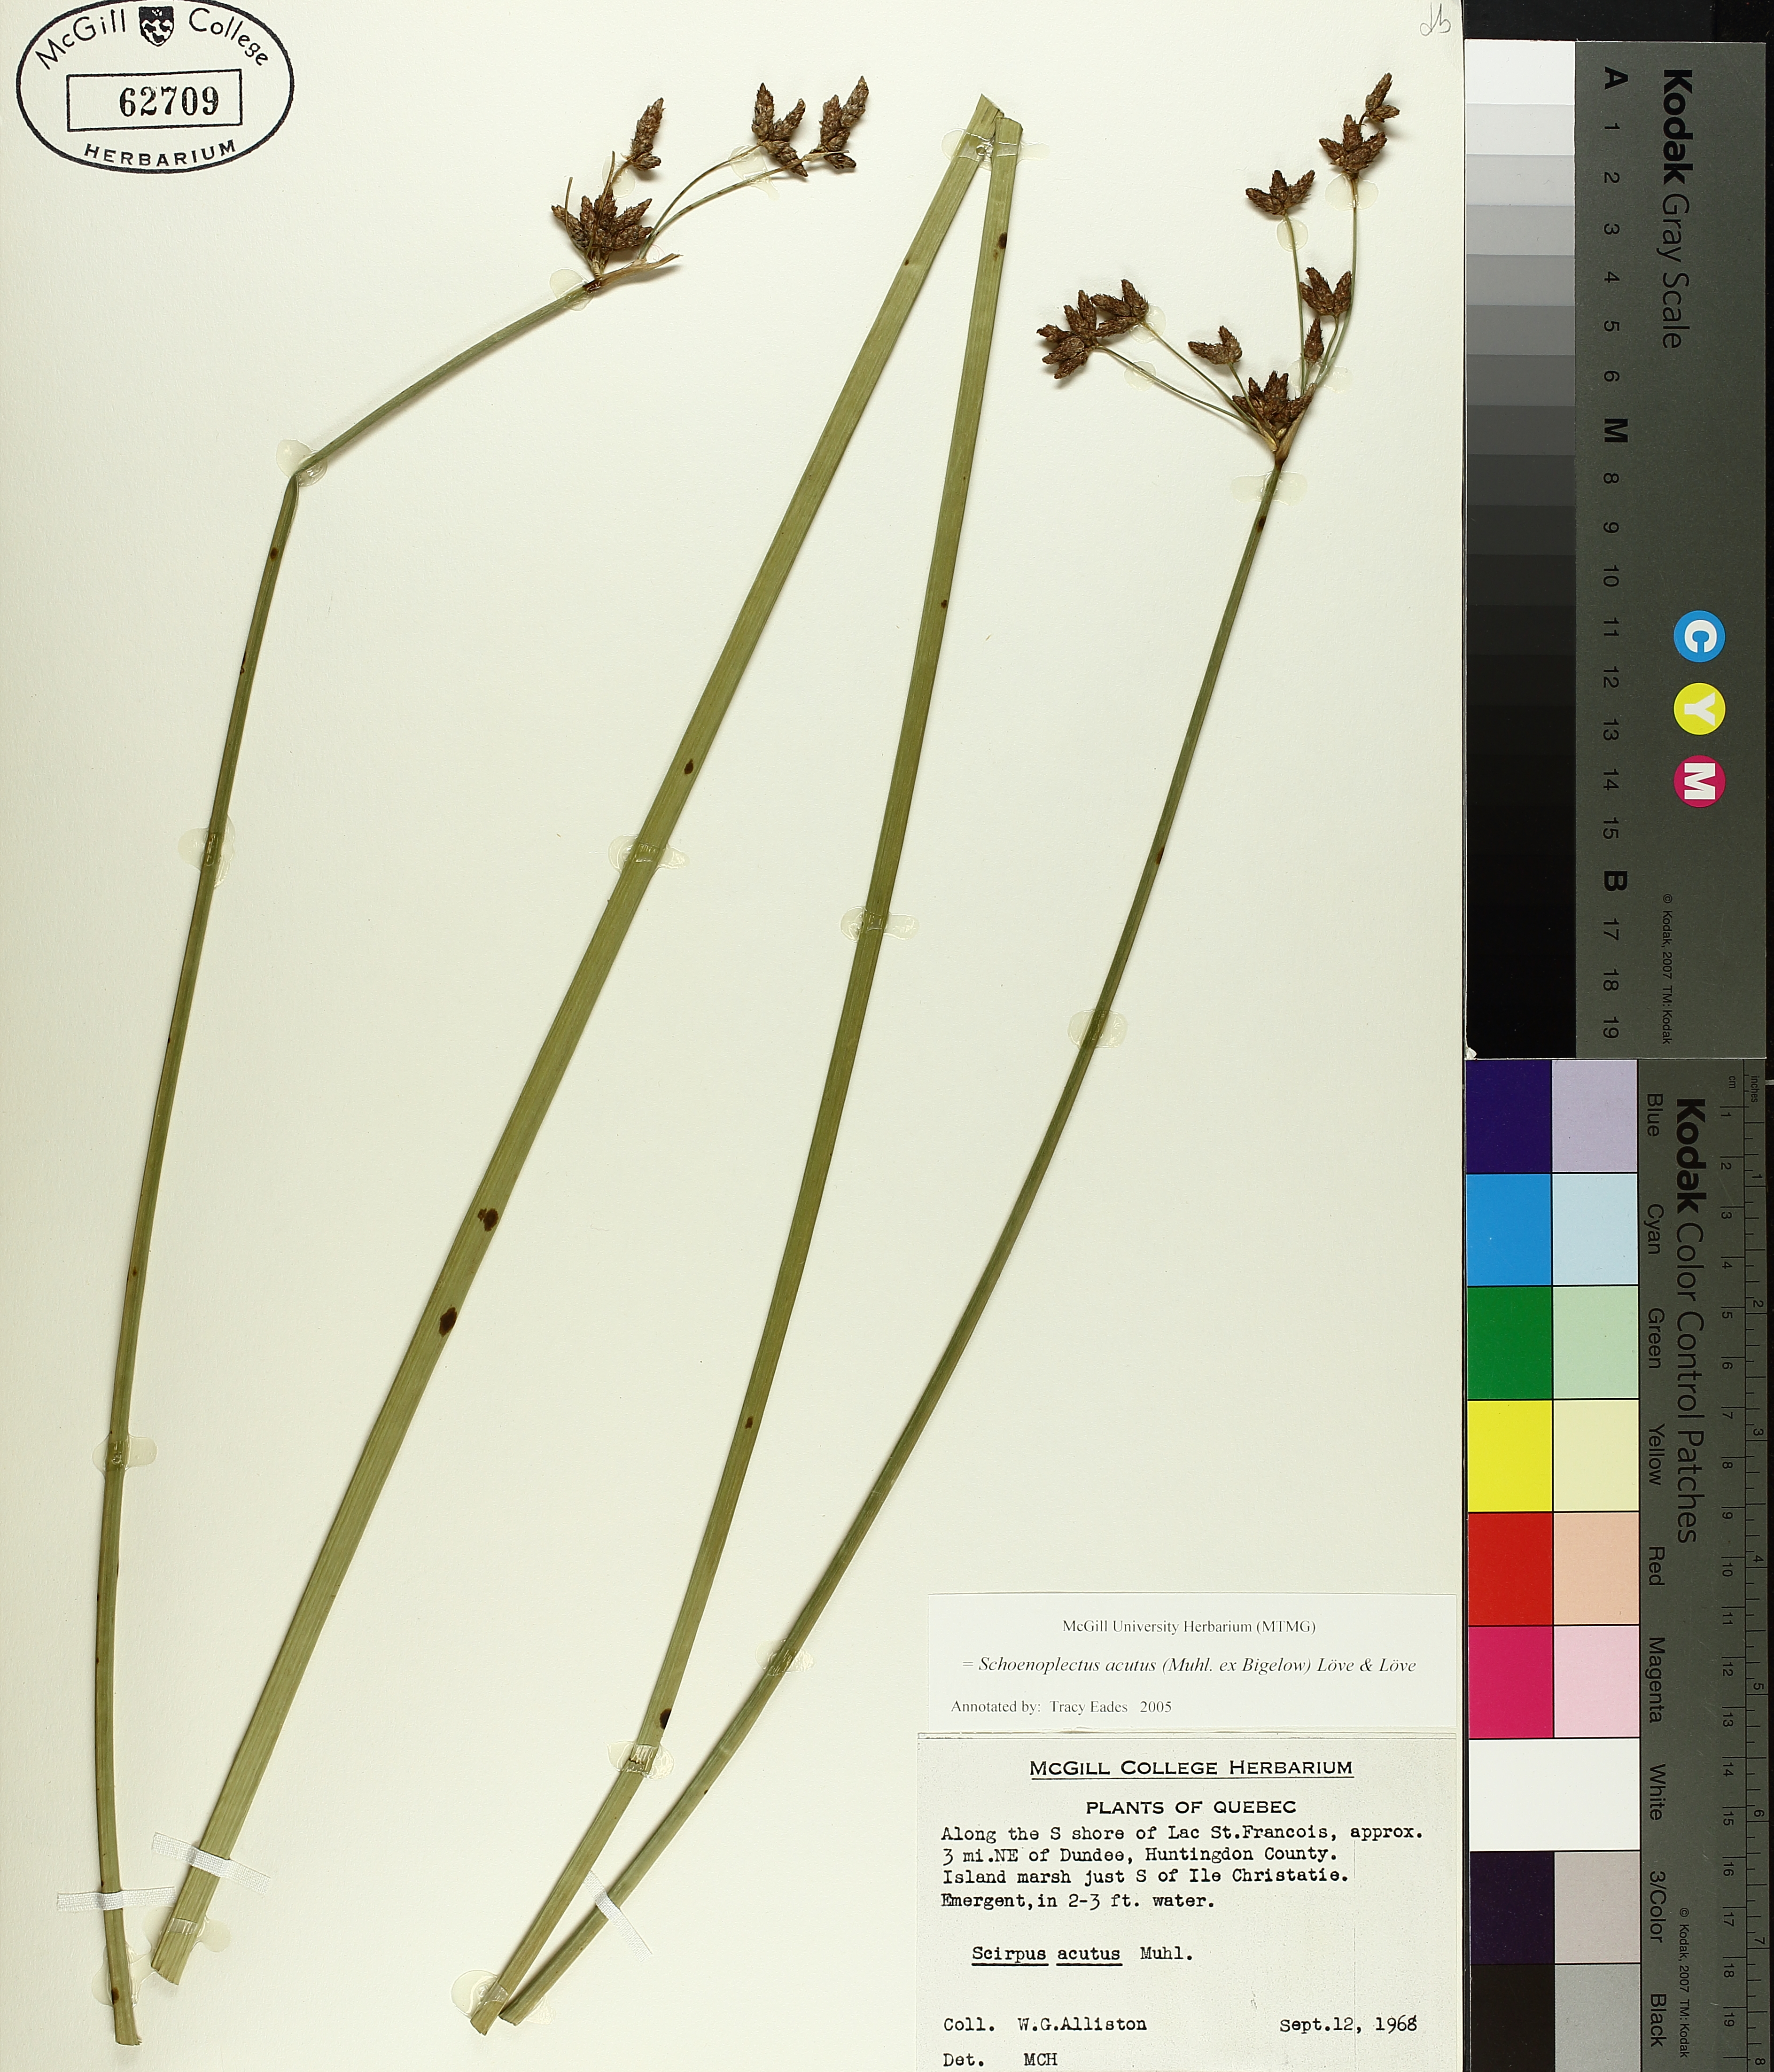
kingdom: Plantae
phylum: Tracheophyta
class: Liliopsida
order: Poales
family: Cyperaceae
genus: Schoenoplectus
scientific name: Schoenoplectus acutus
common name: Hardstem bulrush
